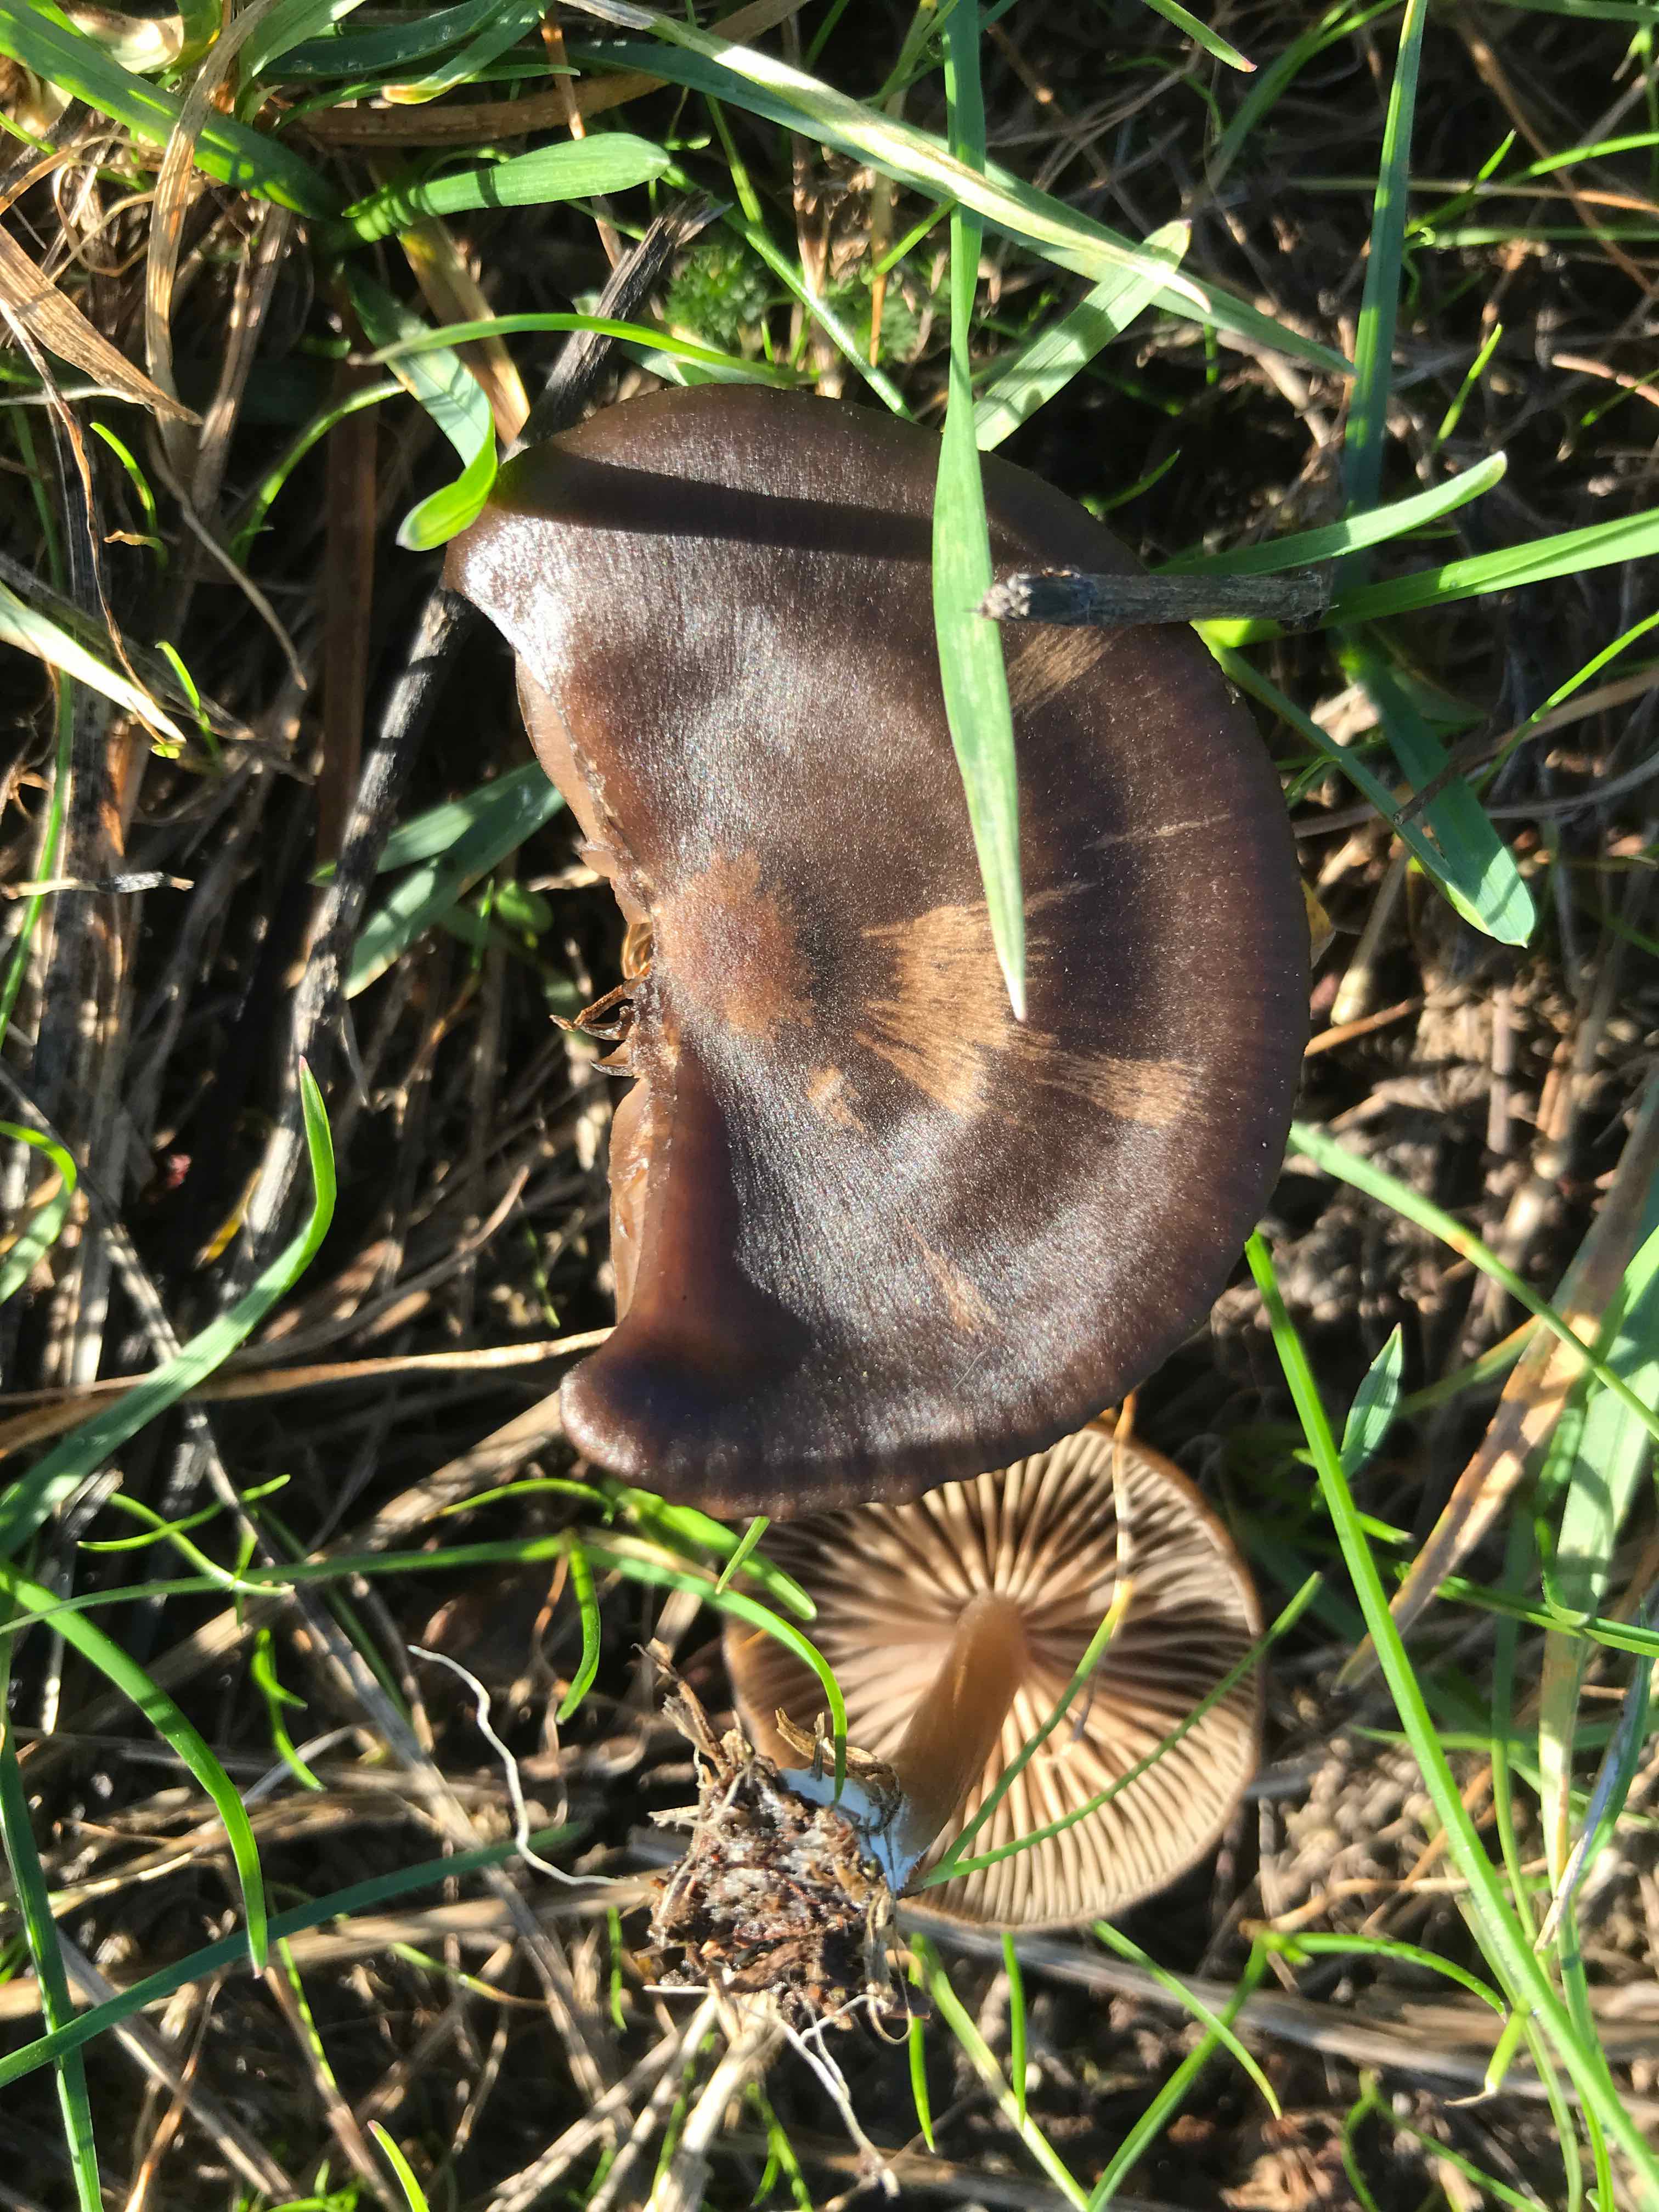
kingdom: Fungi
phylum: Basidiomycota
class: Agaricomycetes
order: Agaricales
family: Entolomataceae
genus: Entoloma
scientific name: Entoloma sericeum
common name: silkeglinsende rødblad
